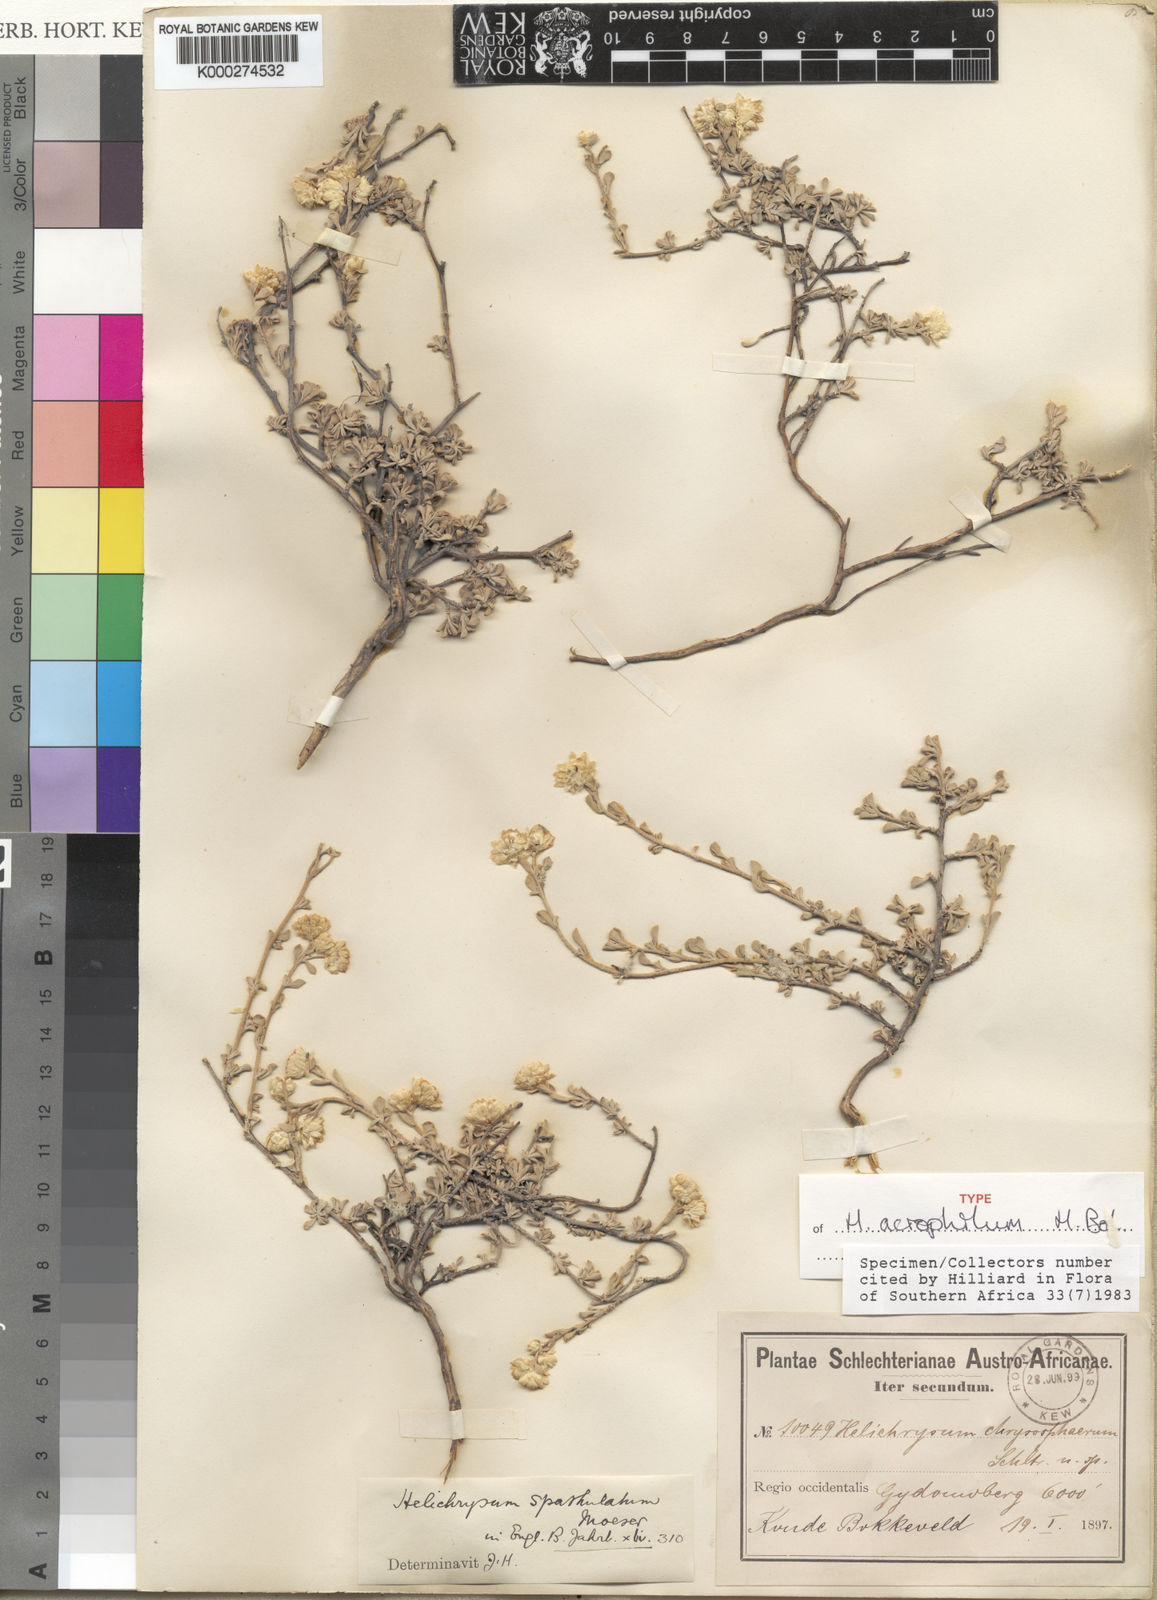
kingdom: Plantae
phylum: Tracheophyta
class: Magnoliopsida
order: Asterales
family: Asteraceae
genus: Helichrysum
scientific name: Helichrysum acrophilum
